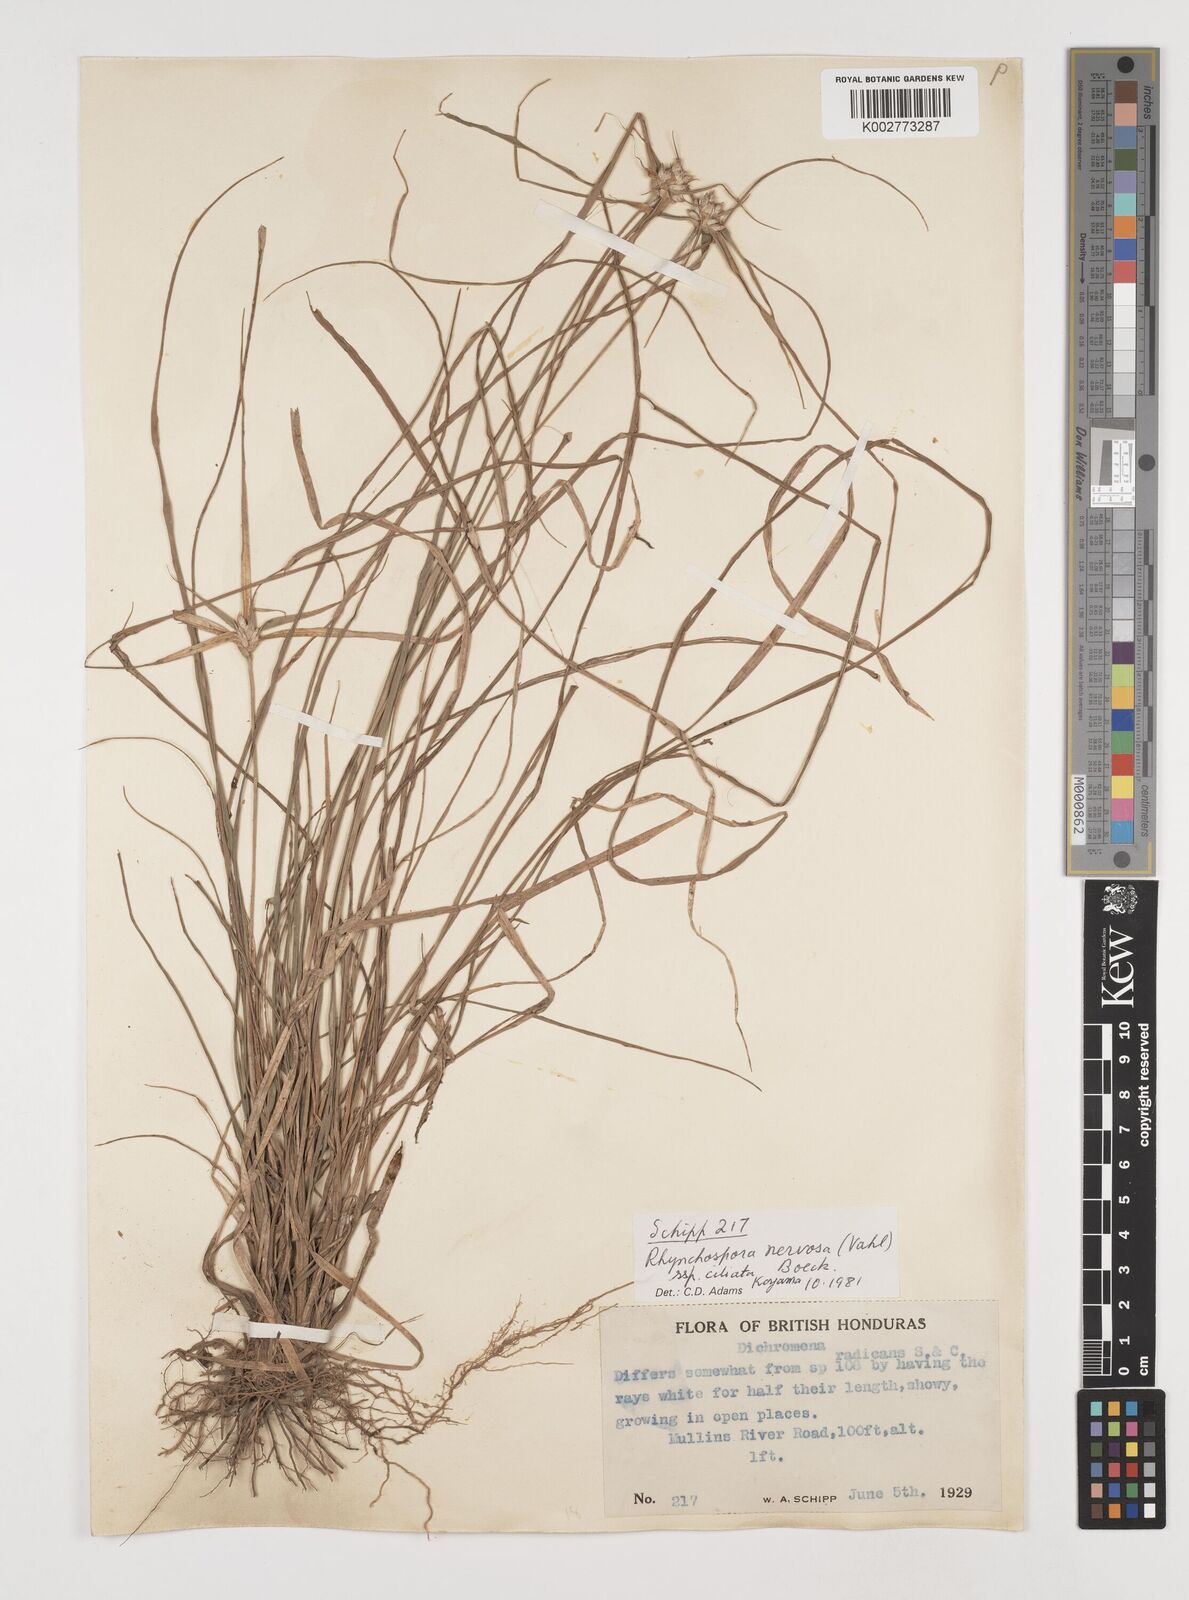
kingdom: Plantae
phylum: Tracheophyta
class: Liliopsida
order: Poales
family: Cyperaceae
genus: Rhynchospora
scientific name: Rhynchospora pura
